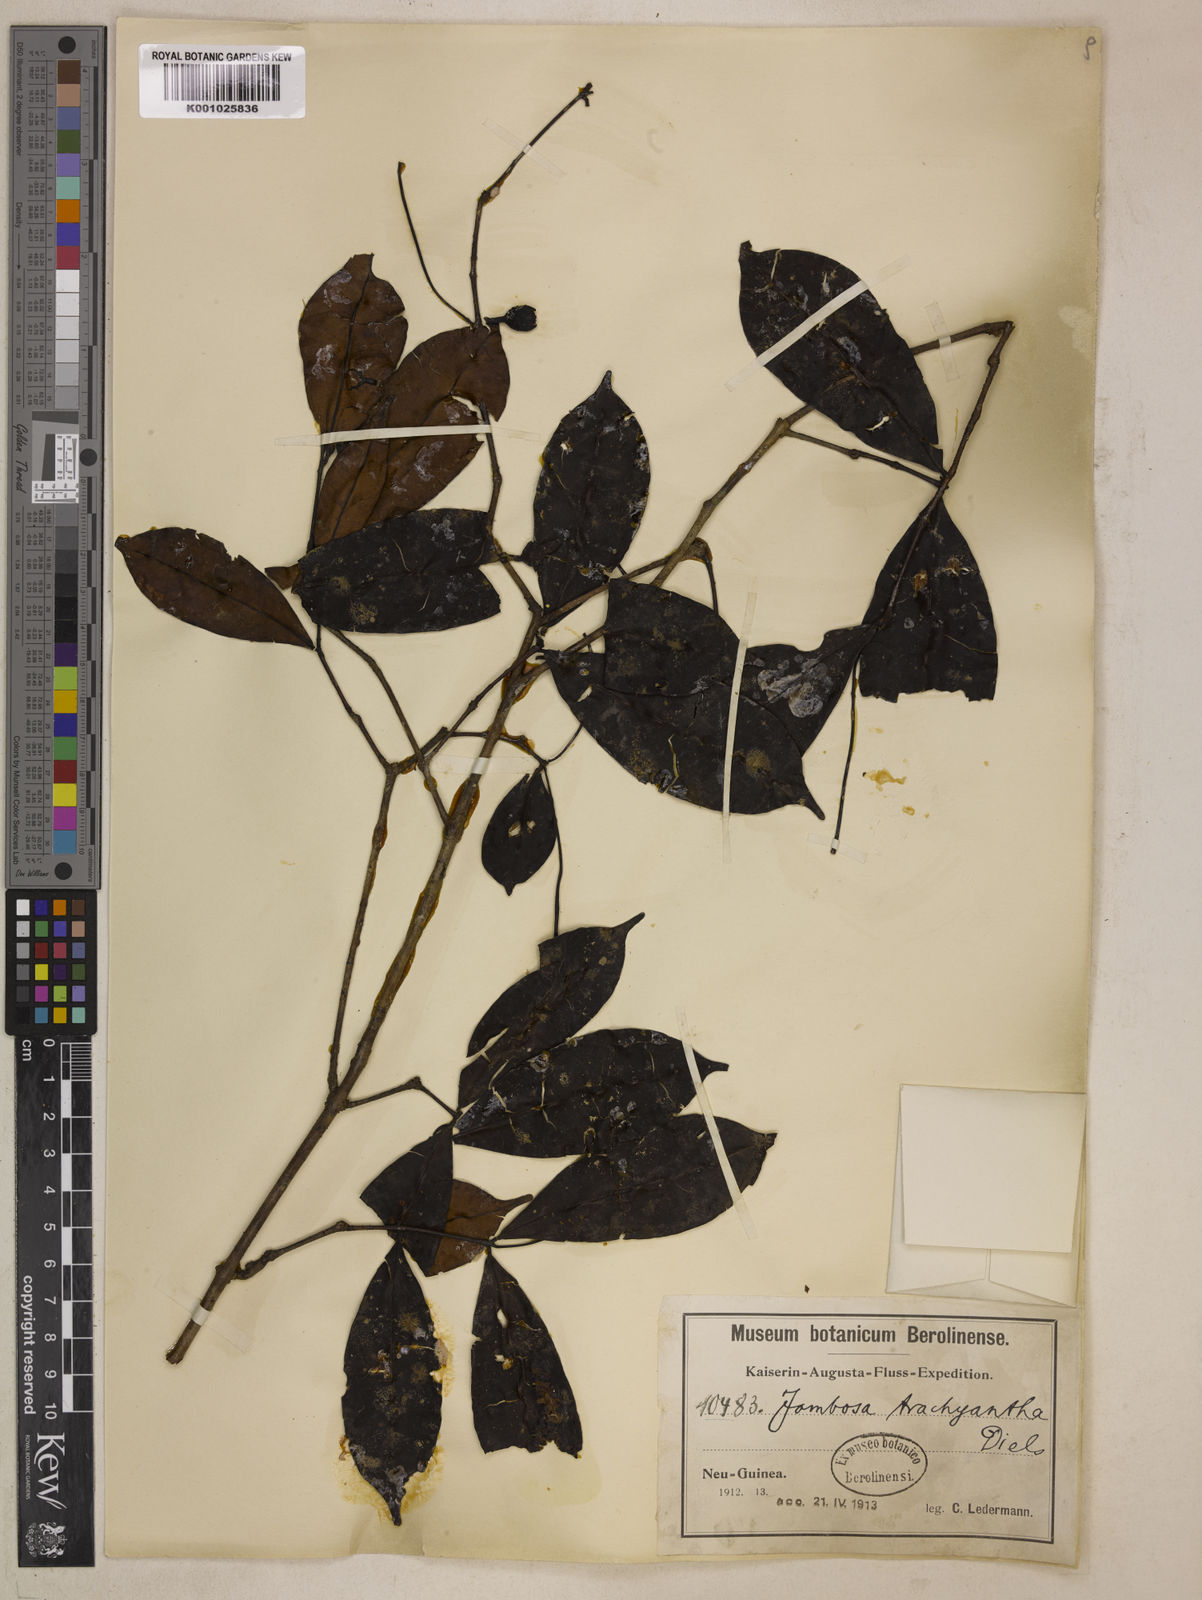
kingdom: Plantae
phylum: Tracheophyta
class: Magnoliopsida
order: Myrtales
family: Myrtaceae
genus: Syzygium
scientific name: Syzygium trachyanthum
